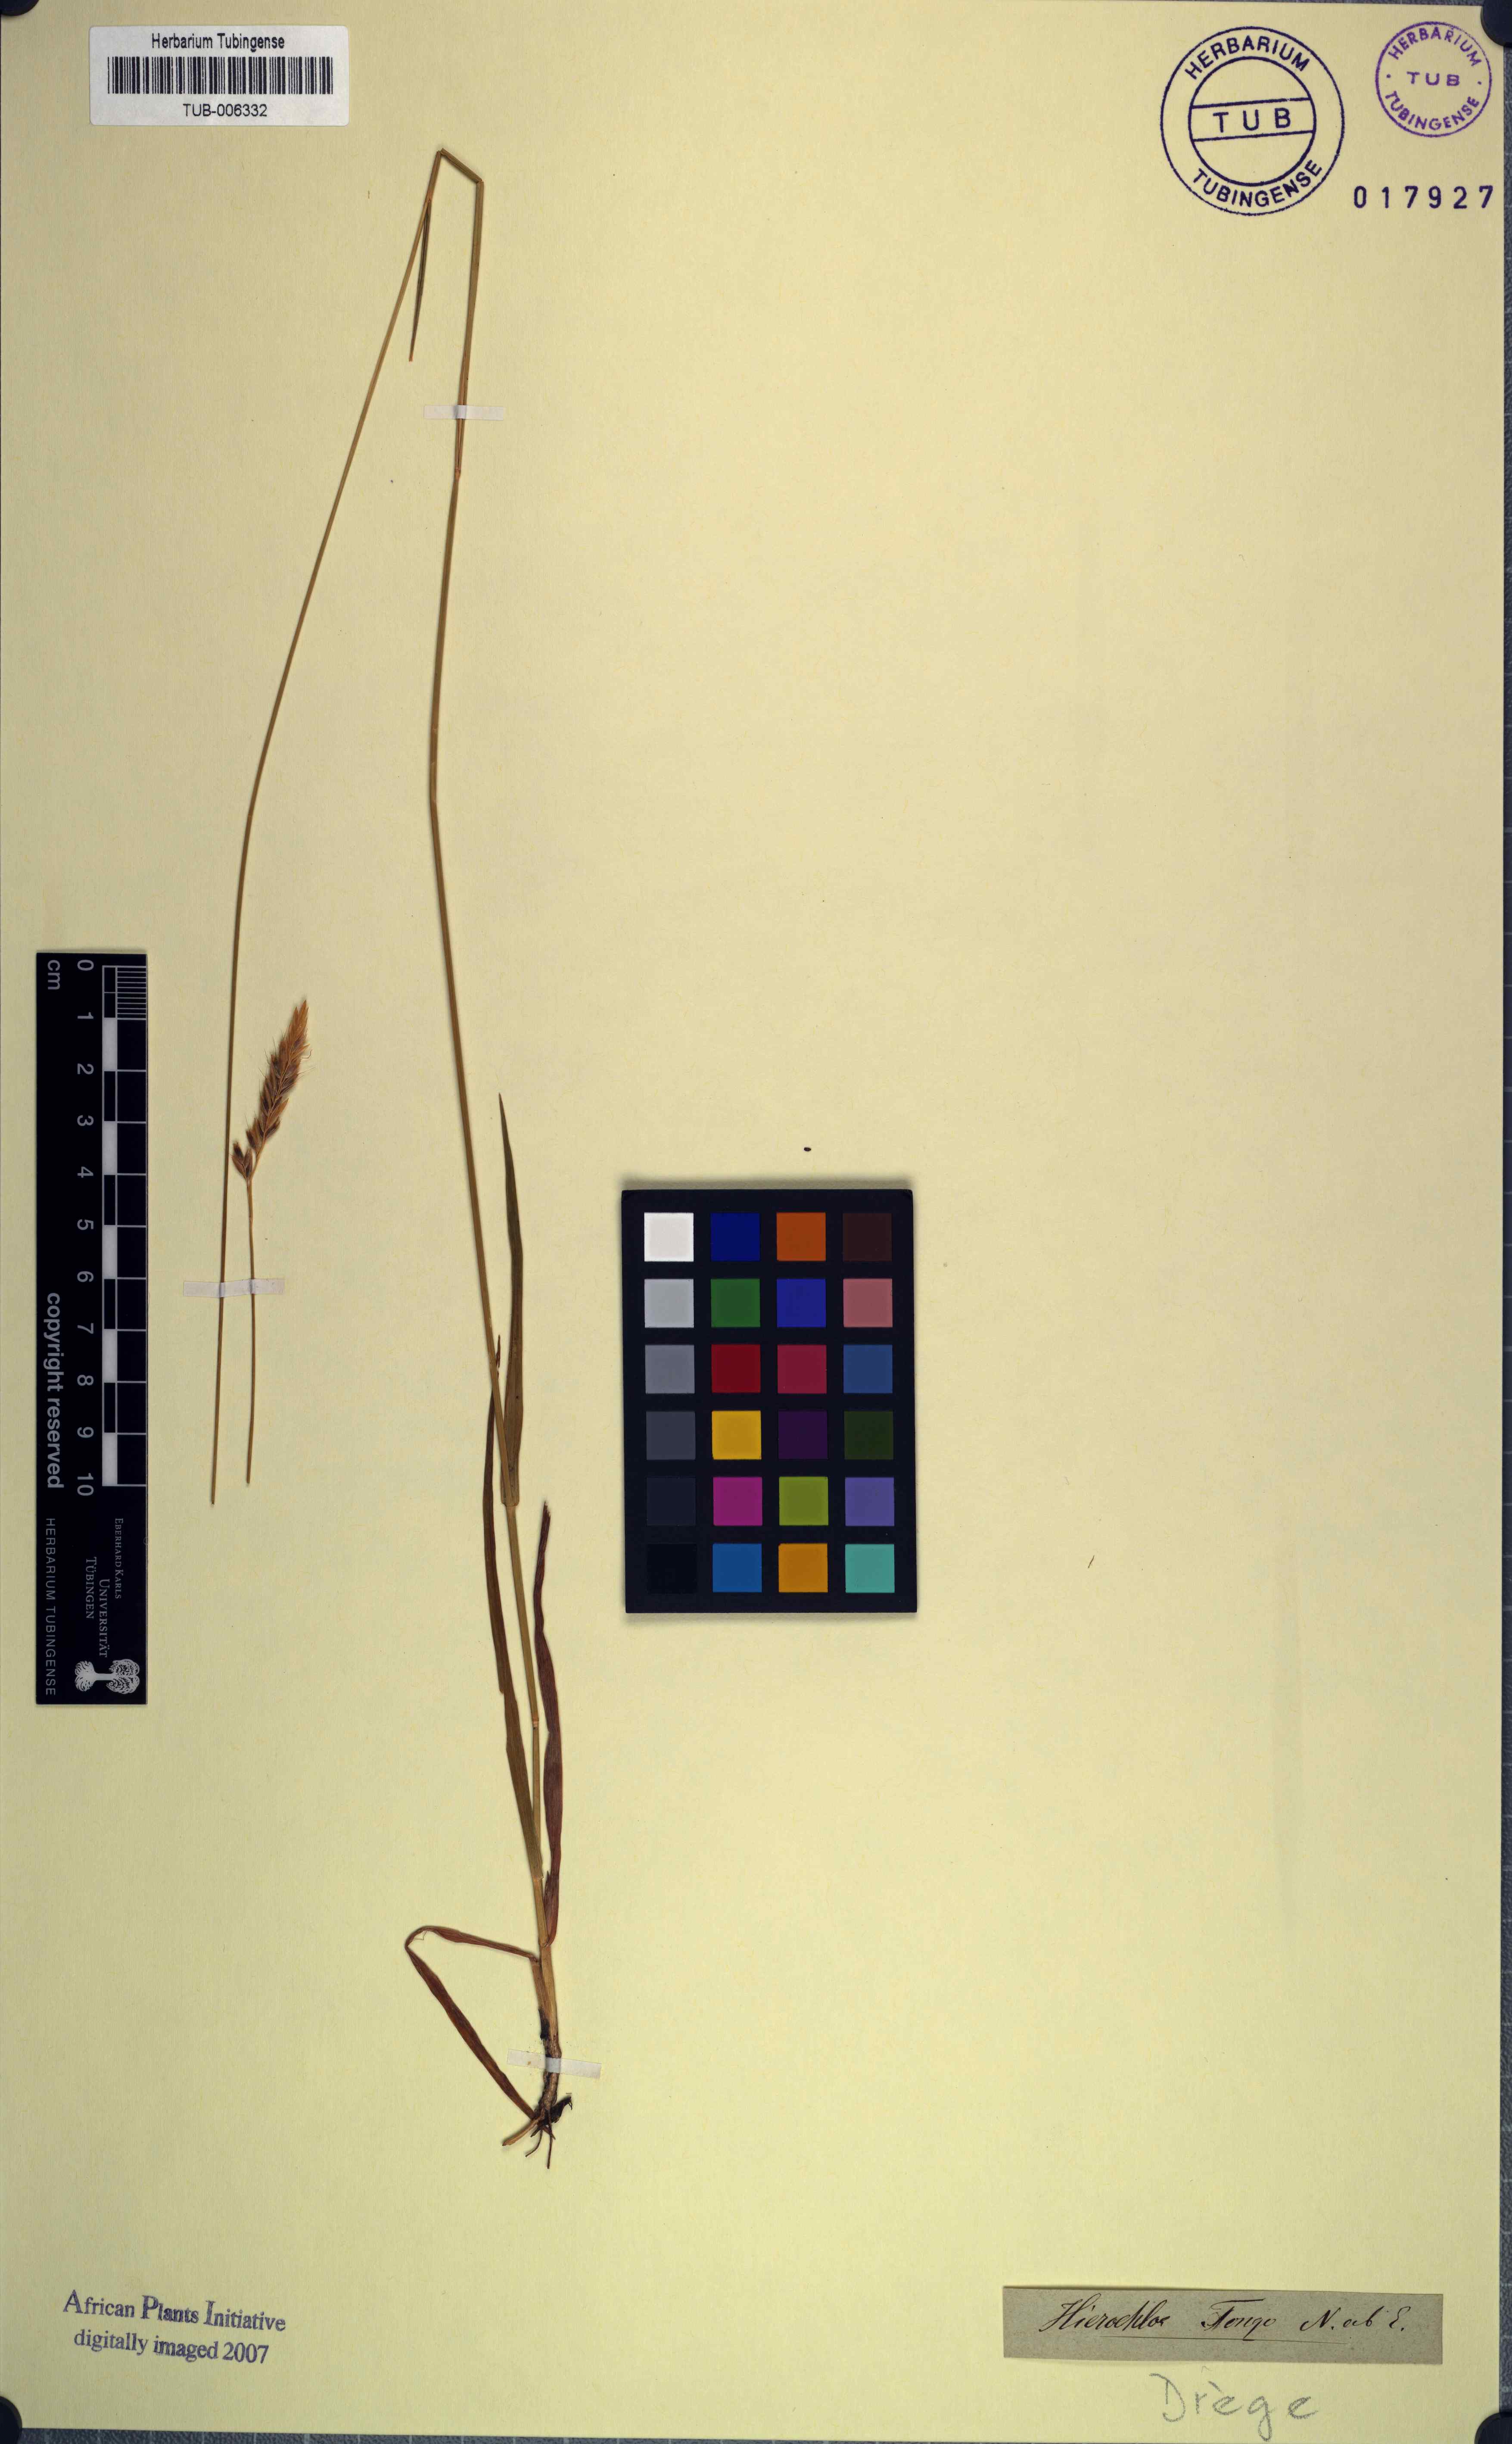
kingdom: Plantae
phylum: Tracheophyta
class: Liliopsida
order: Poales
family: Poaceae
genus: Anthoxanthum
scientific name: Anthoxanthum tongo
